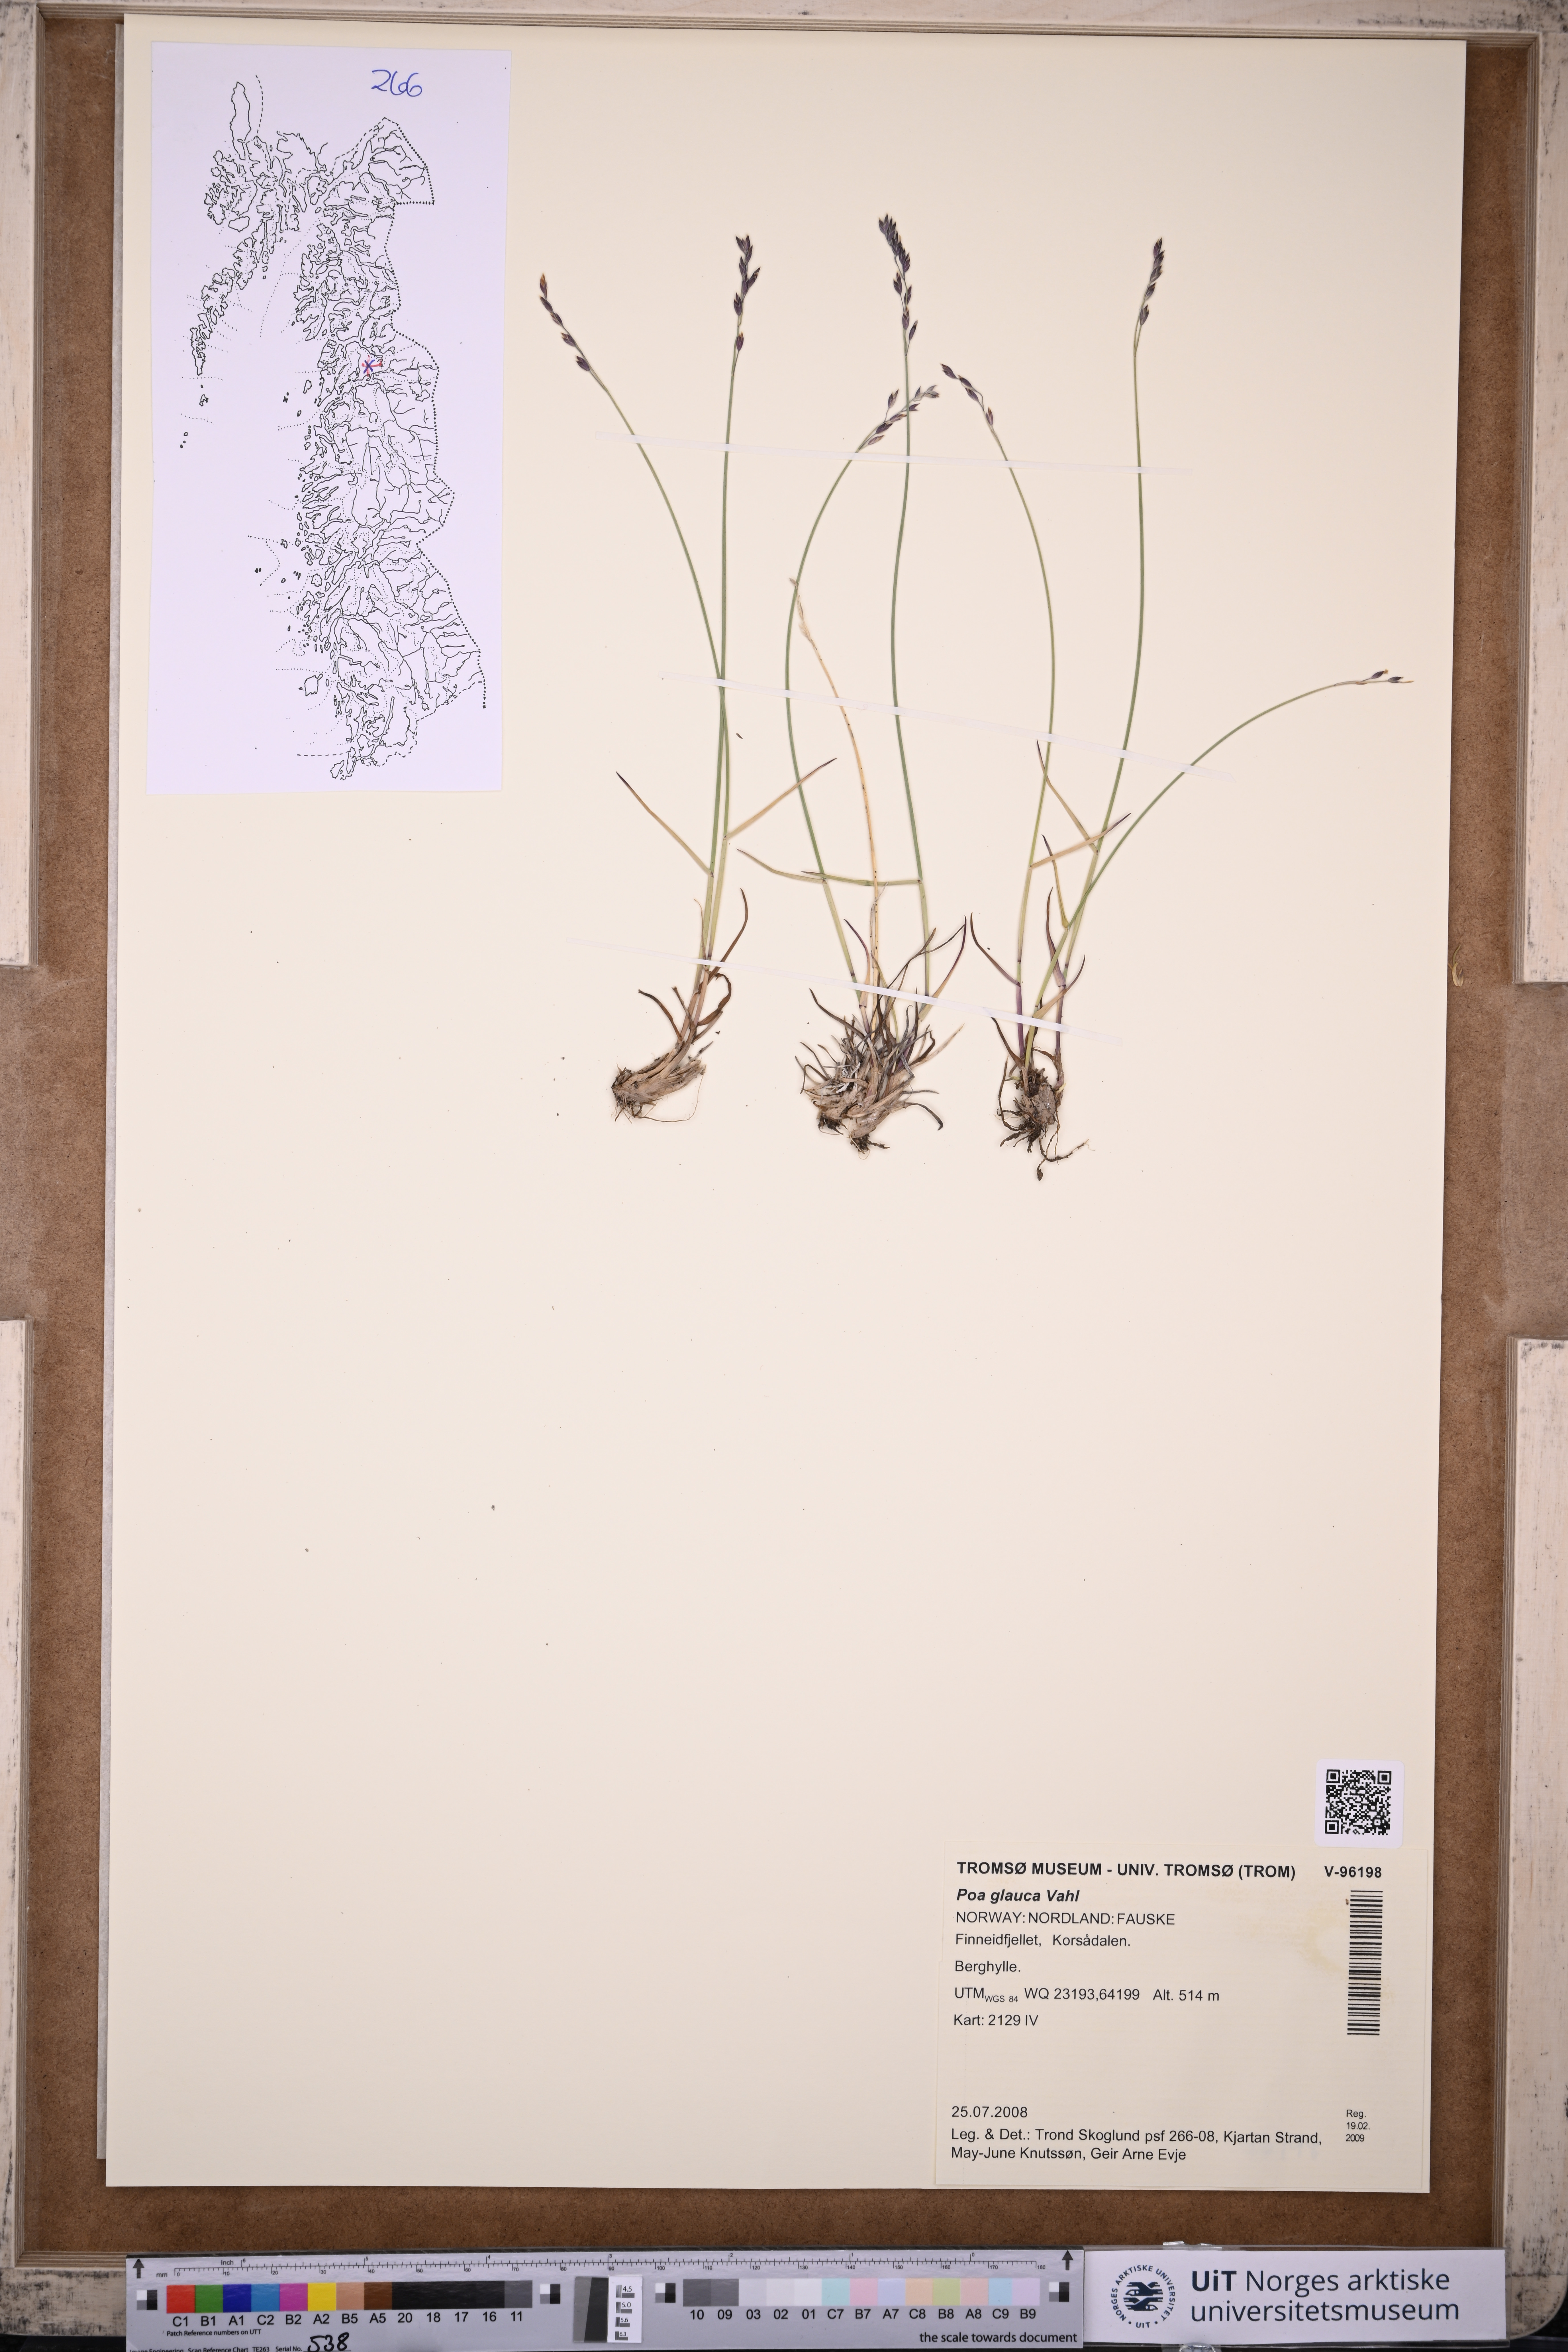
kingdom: Plantae
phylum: Tracheophyta
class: Liliopsida
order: Poales
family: Poaceae
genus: Poa
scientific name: Poa glauca
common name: Glaucous bluegrass
